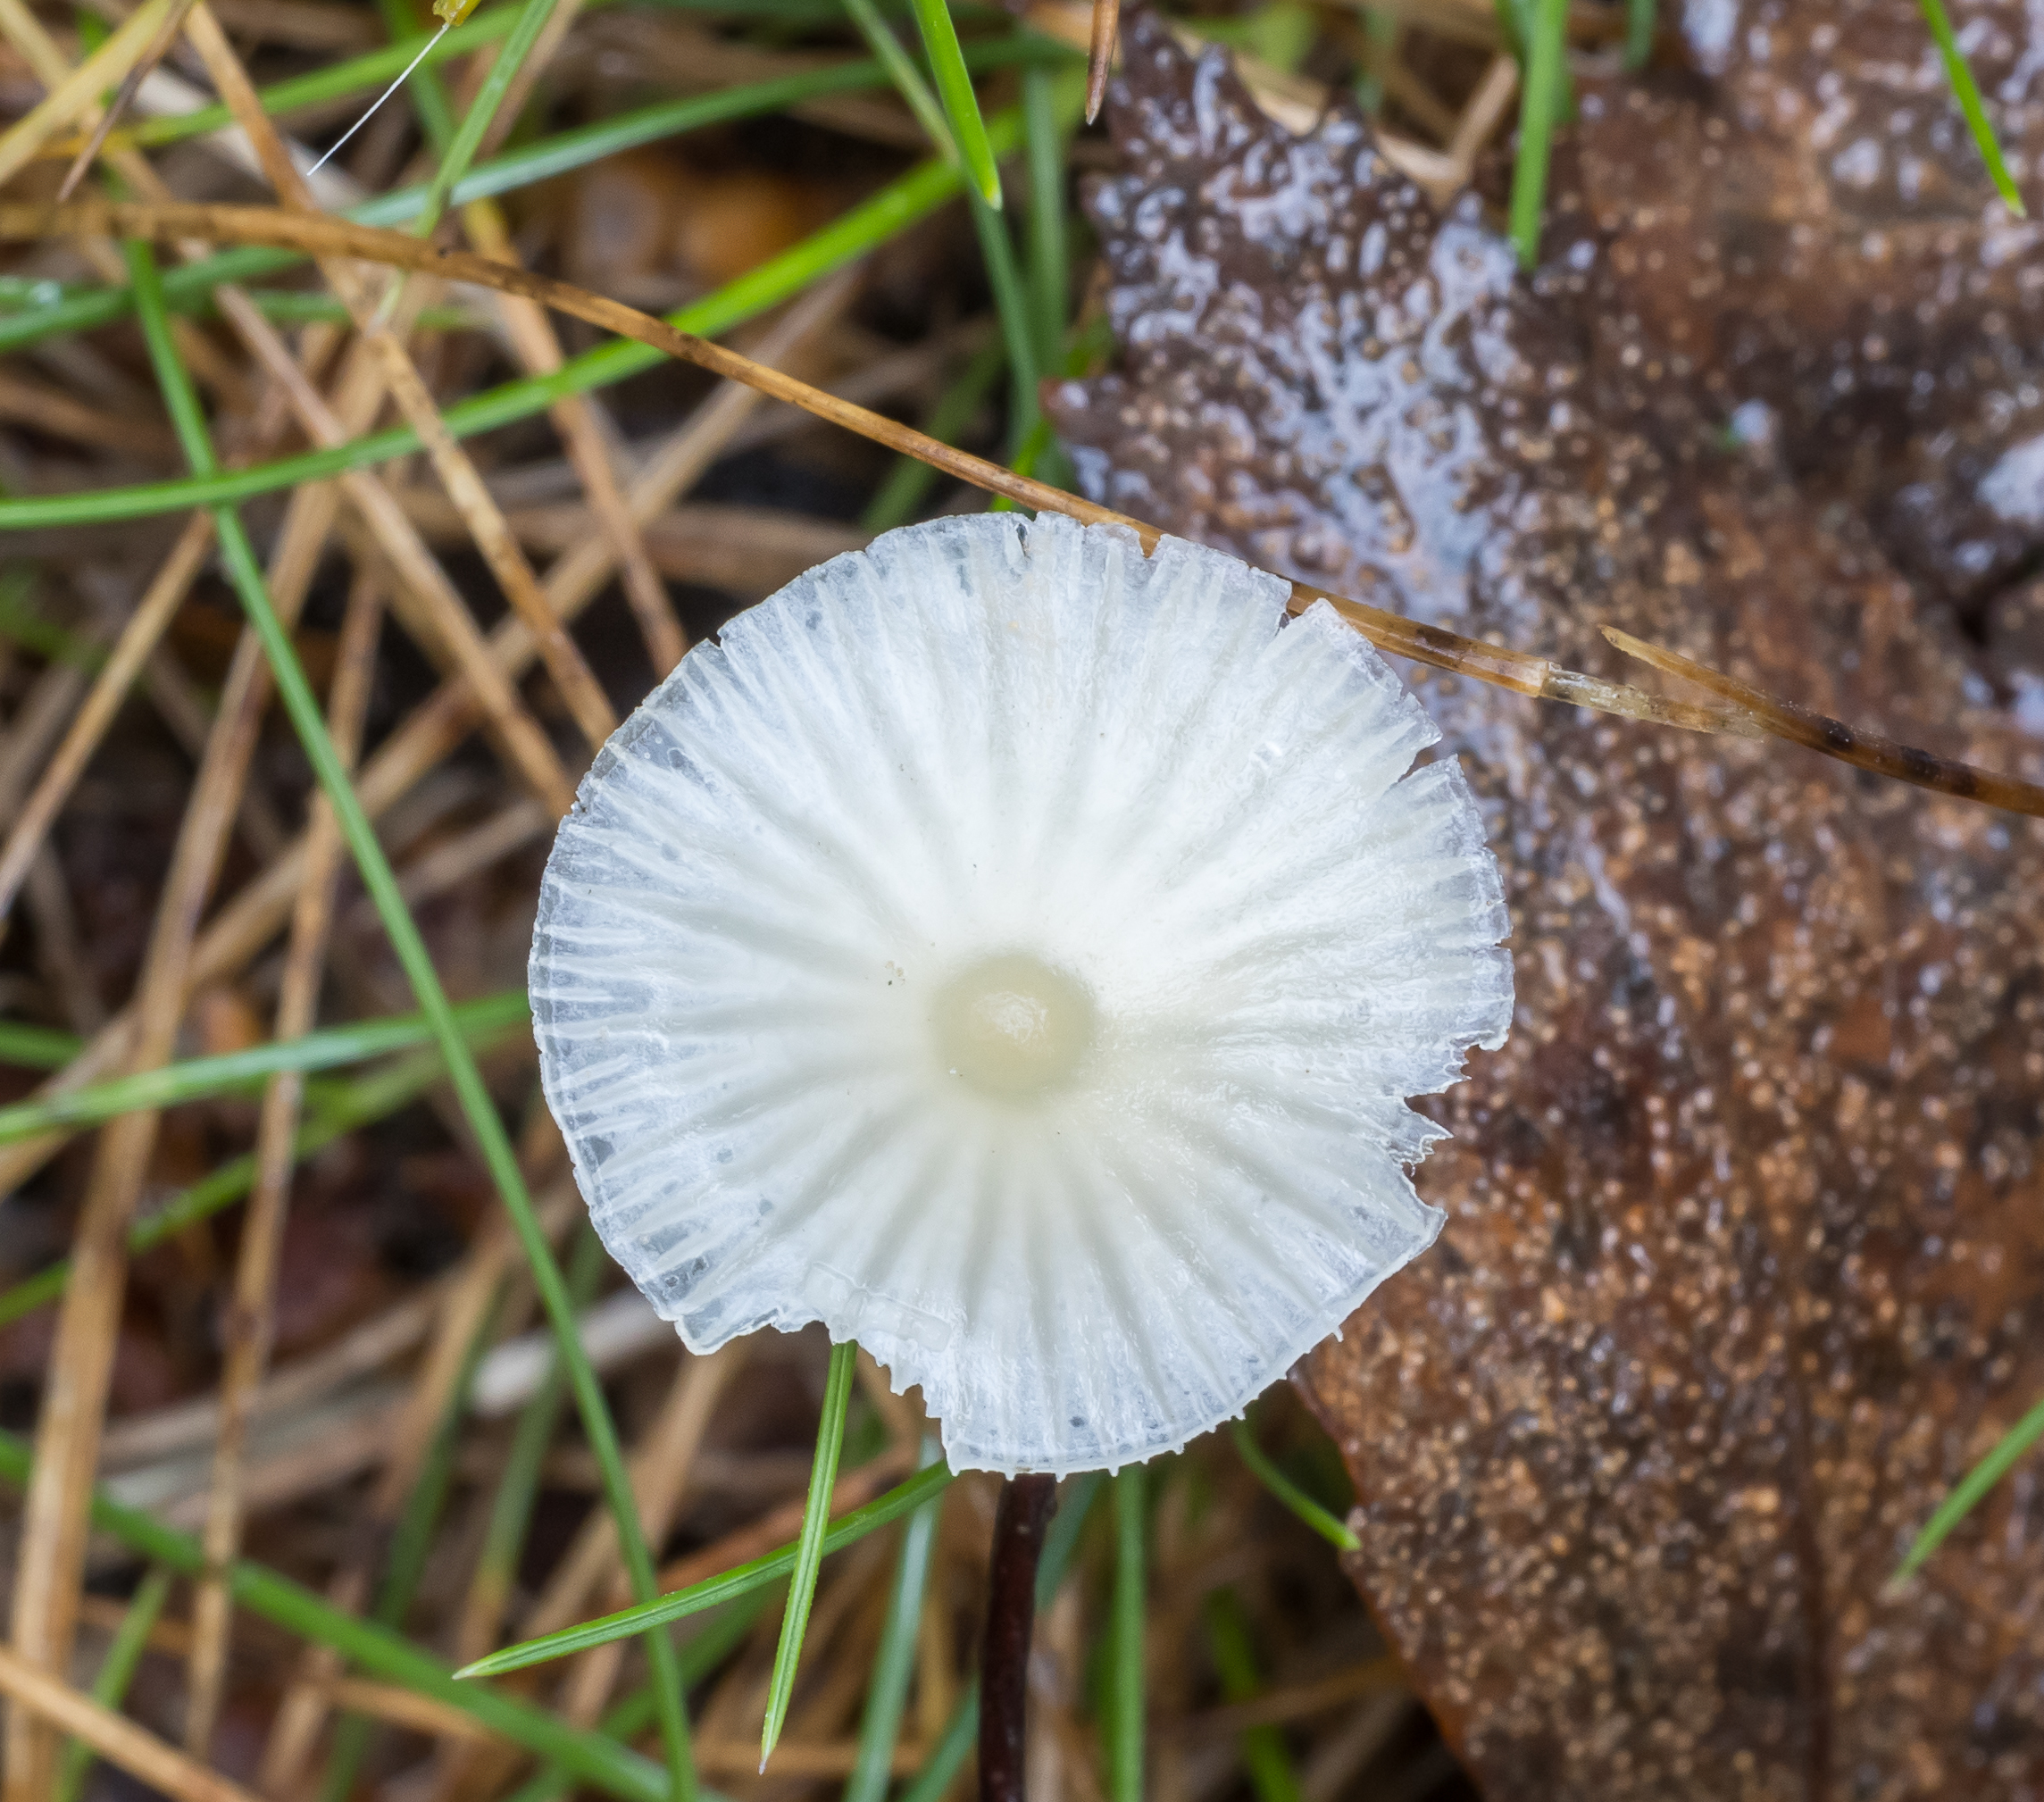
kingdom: Fungi
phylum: Basidiomycota
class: Agaricomycetes
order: Agaricales
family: Tricholomataceae
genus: Delicatula
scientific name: Delicatula integrella
